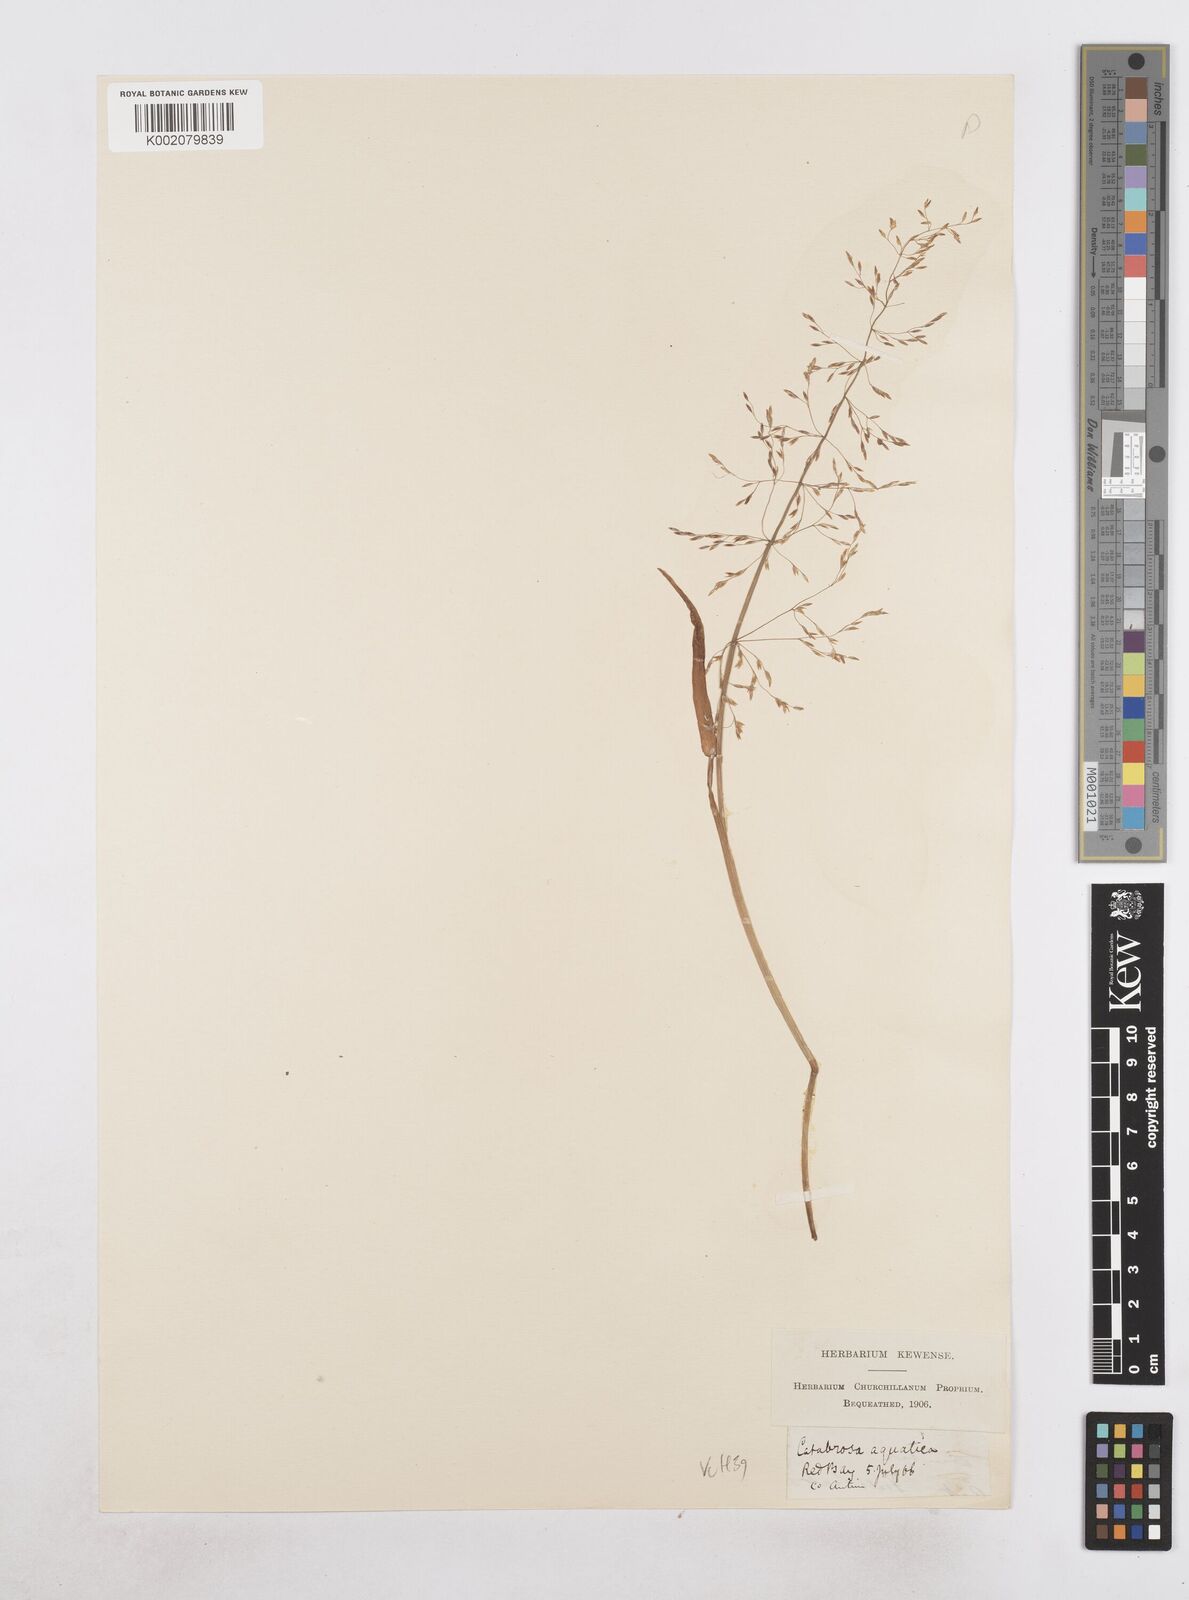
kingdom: Plantae
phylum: Tracheophyta
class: Liliopsida
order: Poales
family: Poaceae
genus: Catabrosa
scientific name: Catabrosa aquatica
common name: Whorl-grass
